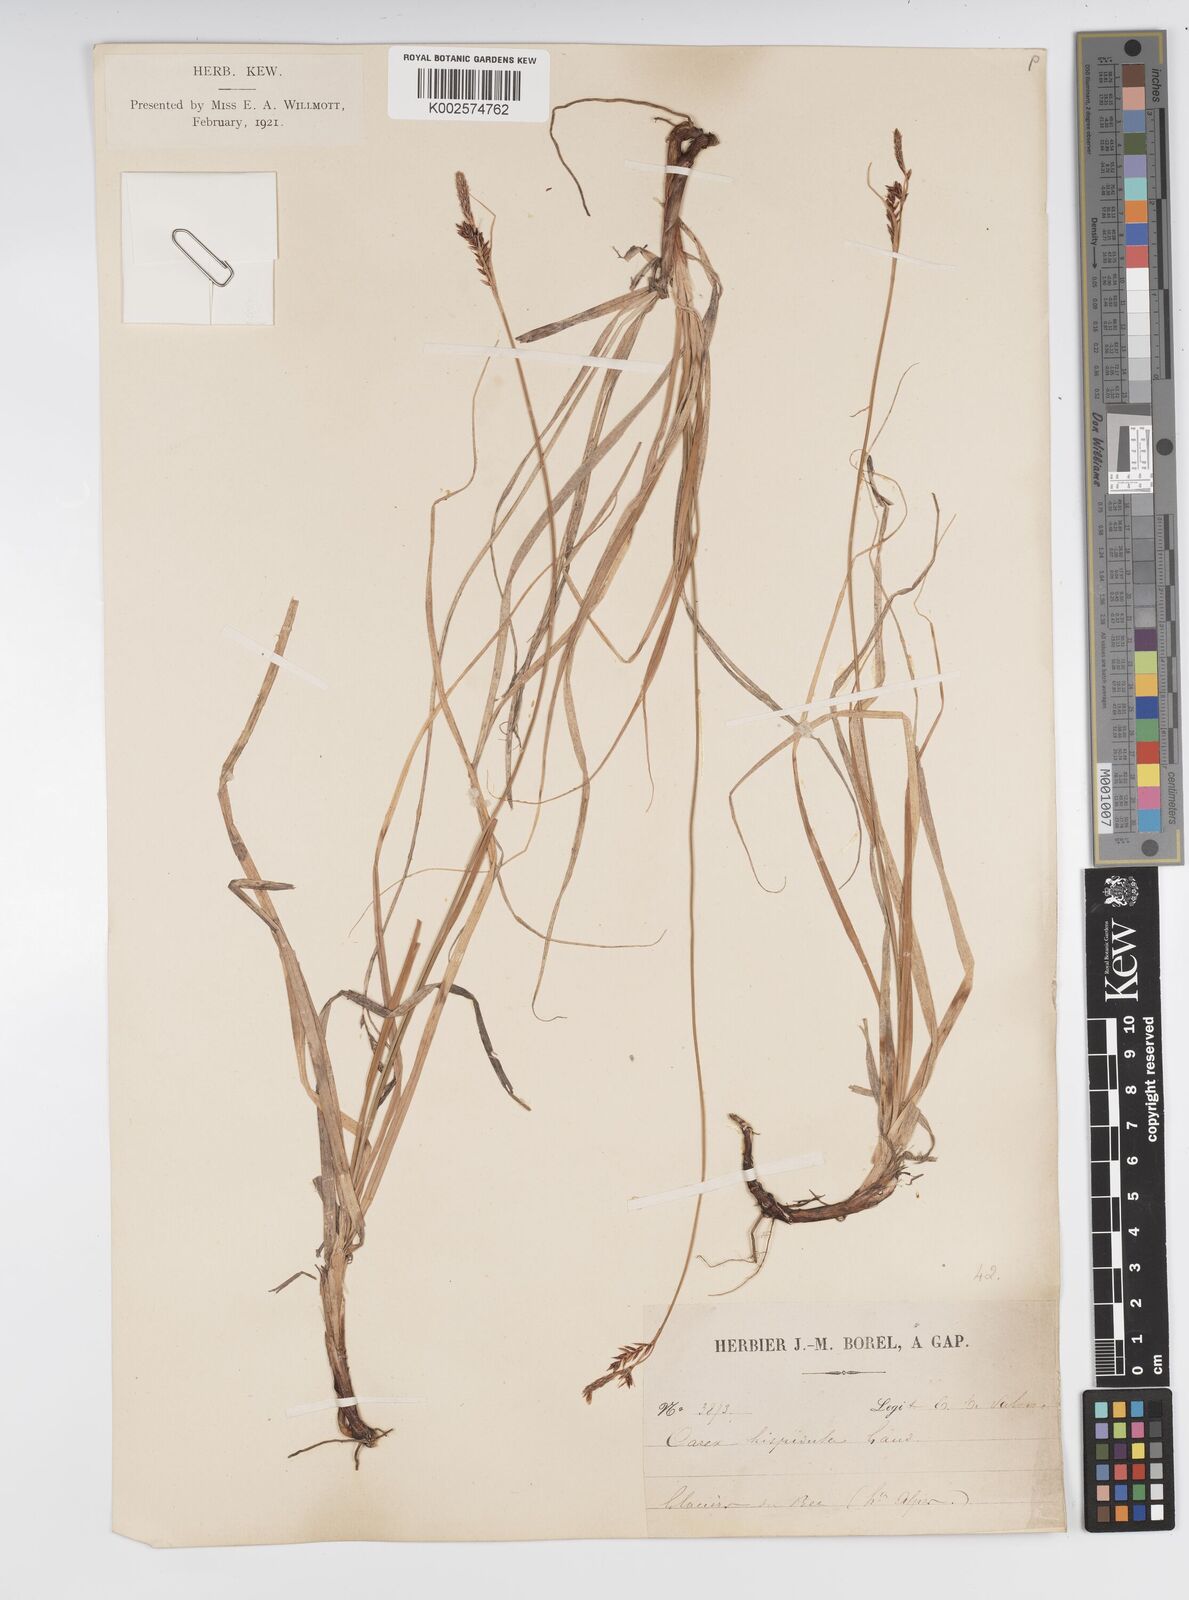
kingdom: Plantae
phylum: Tracheophyta
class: Liliopsida
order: Poales
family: Cyperaceae
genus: Carex
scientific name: Carex fimbriata
